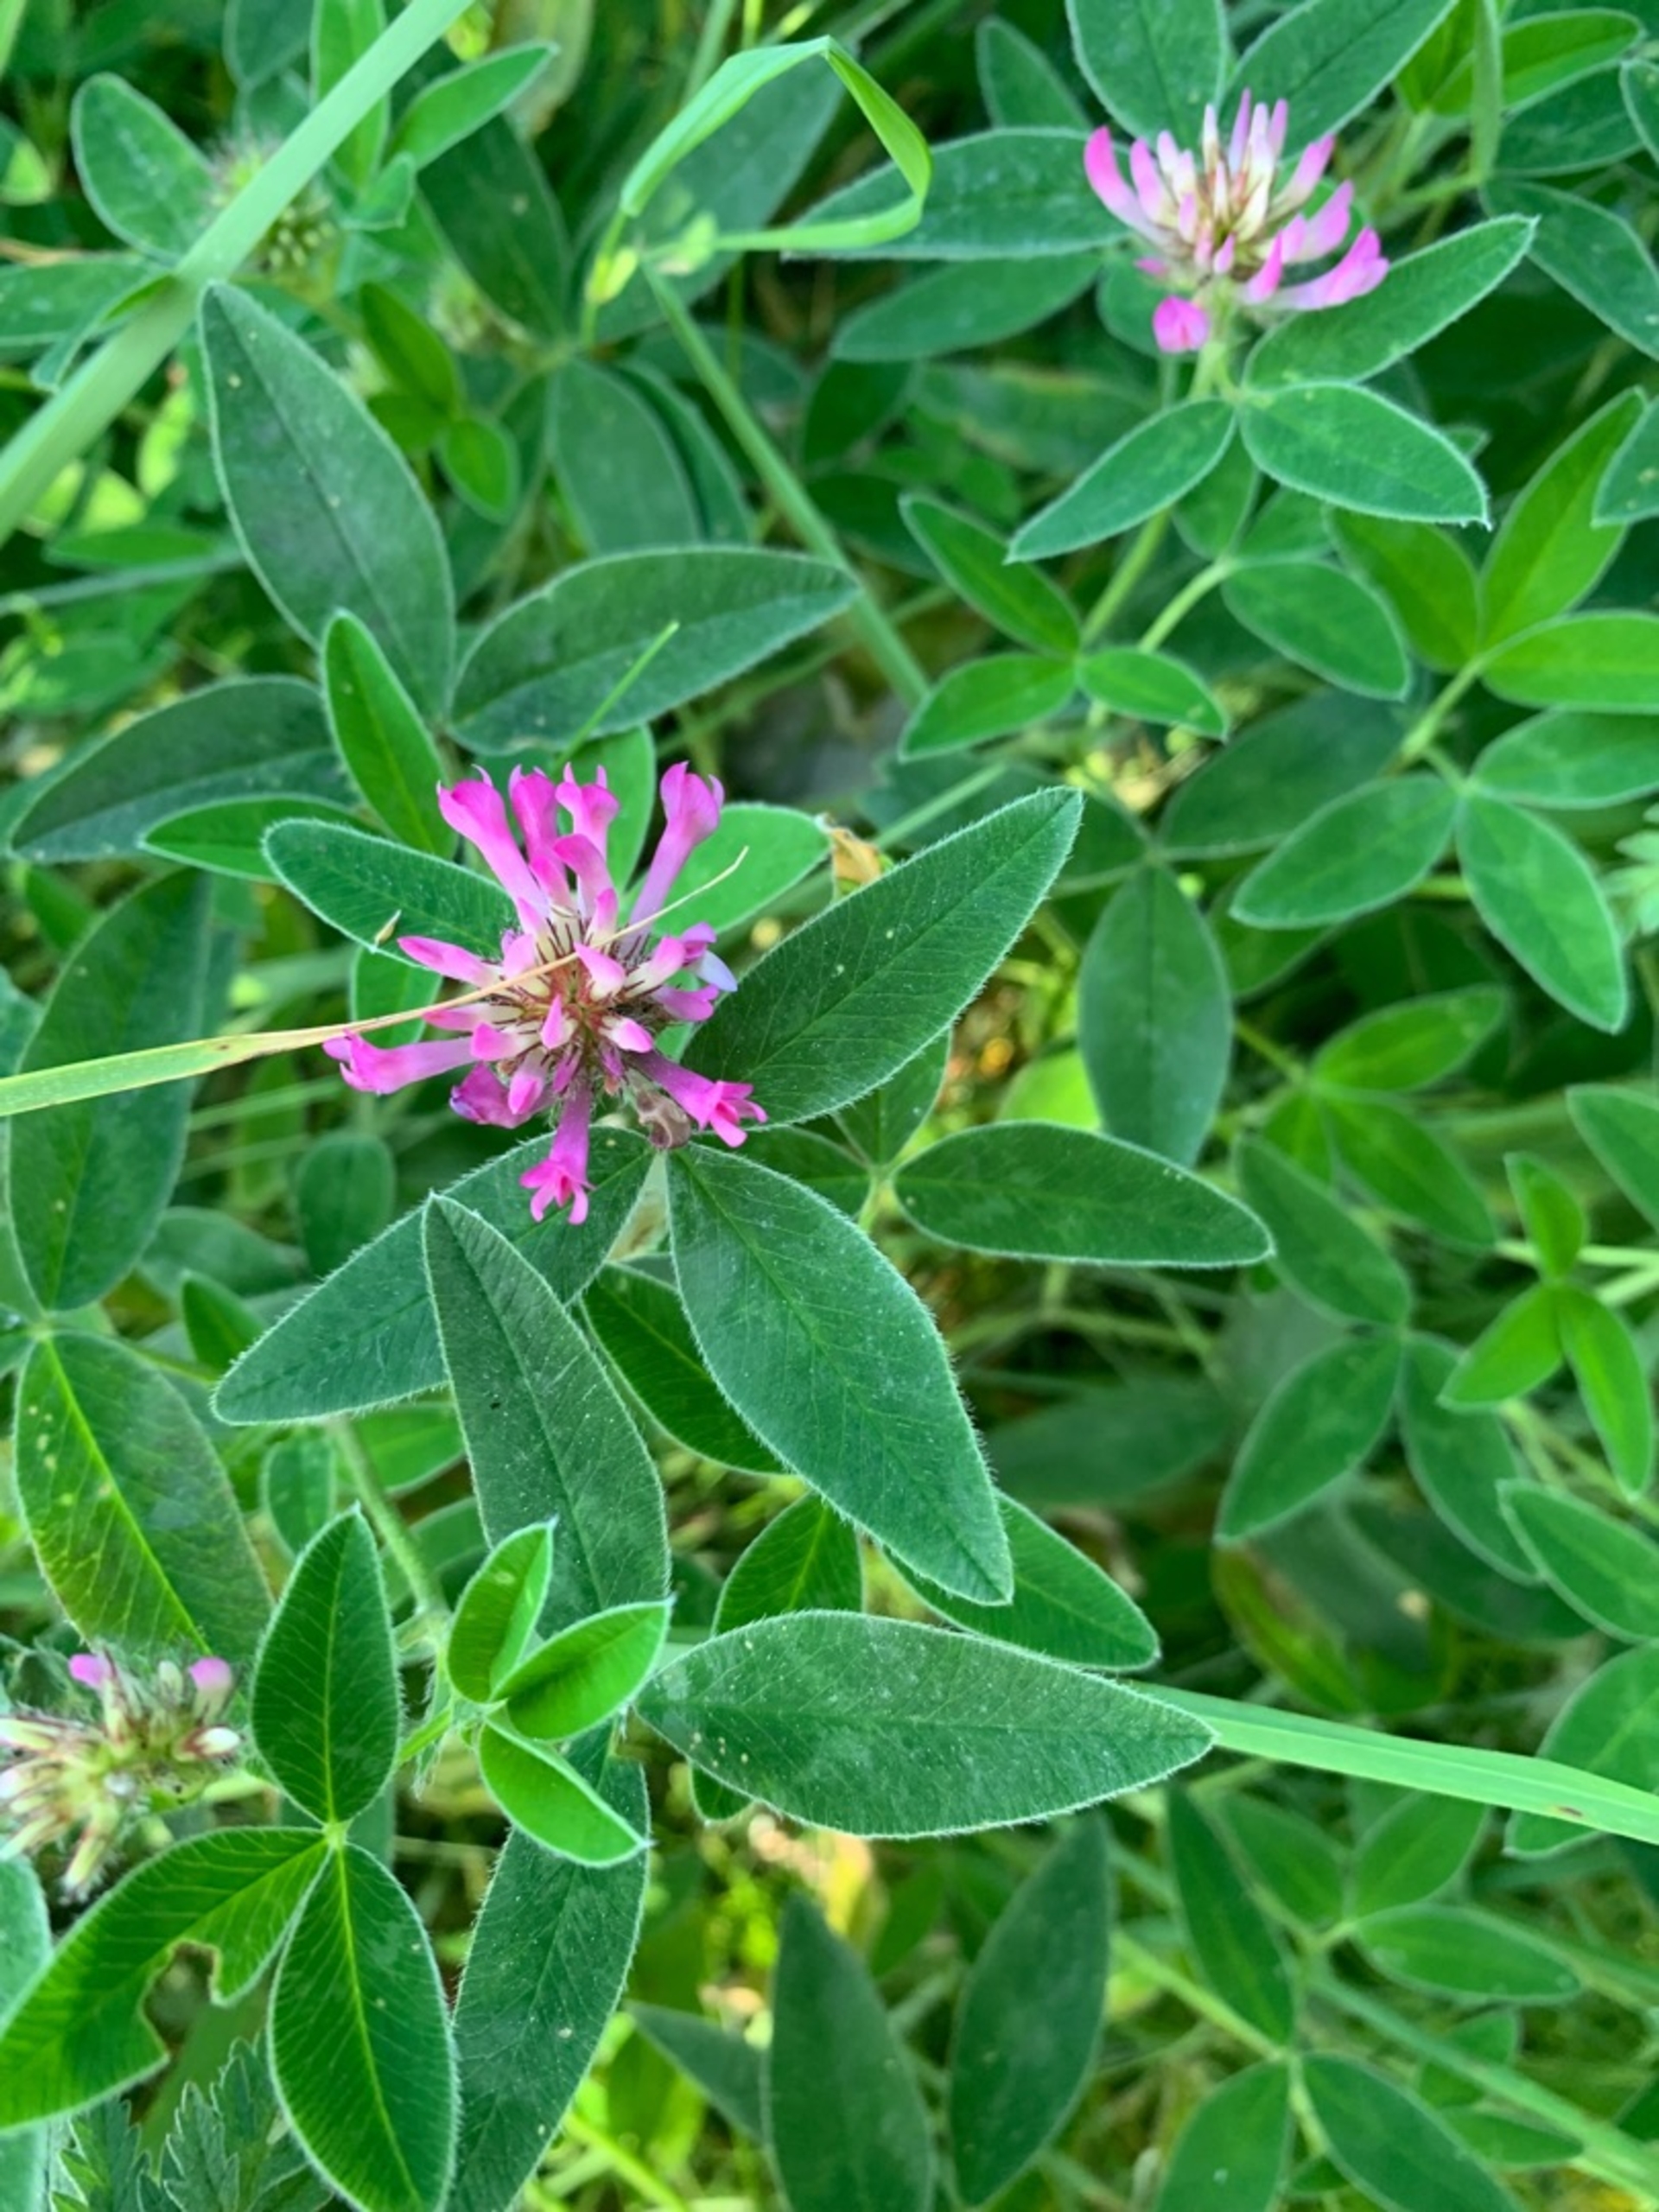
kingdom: Plantae
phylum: Tracheophyta
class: Magnoliopsida
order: Fabales
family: Fabaceae
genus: Trifolium
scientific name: Trifolium medium
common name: Bugtet kløver
